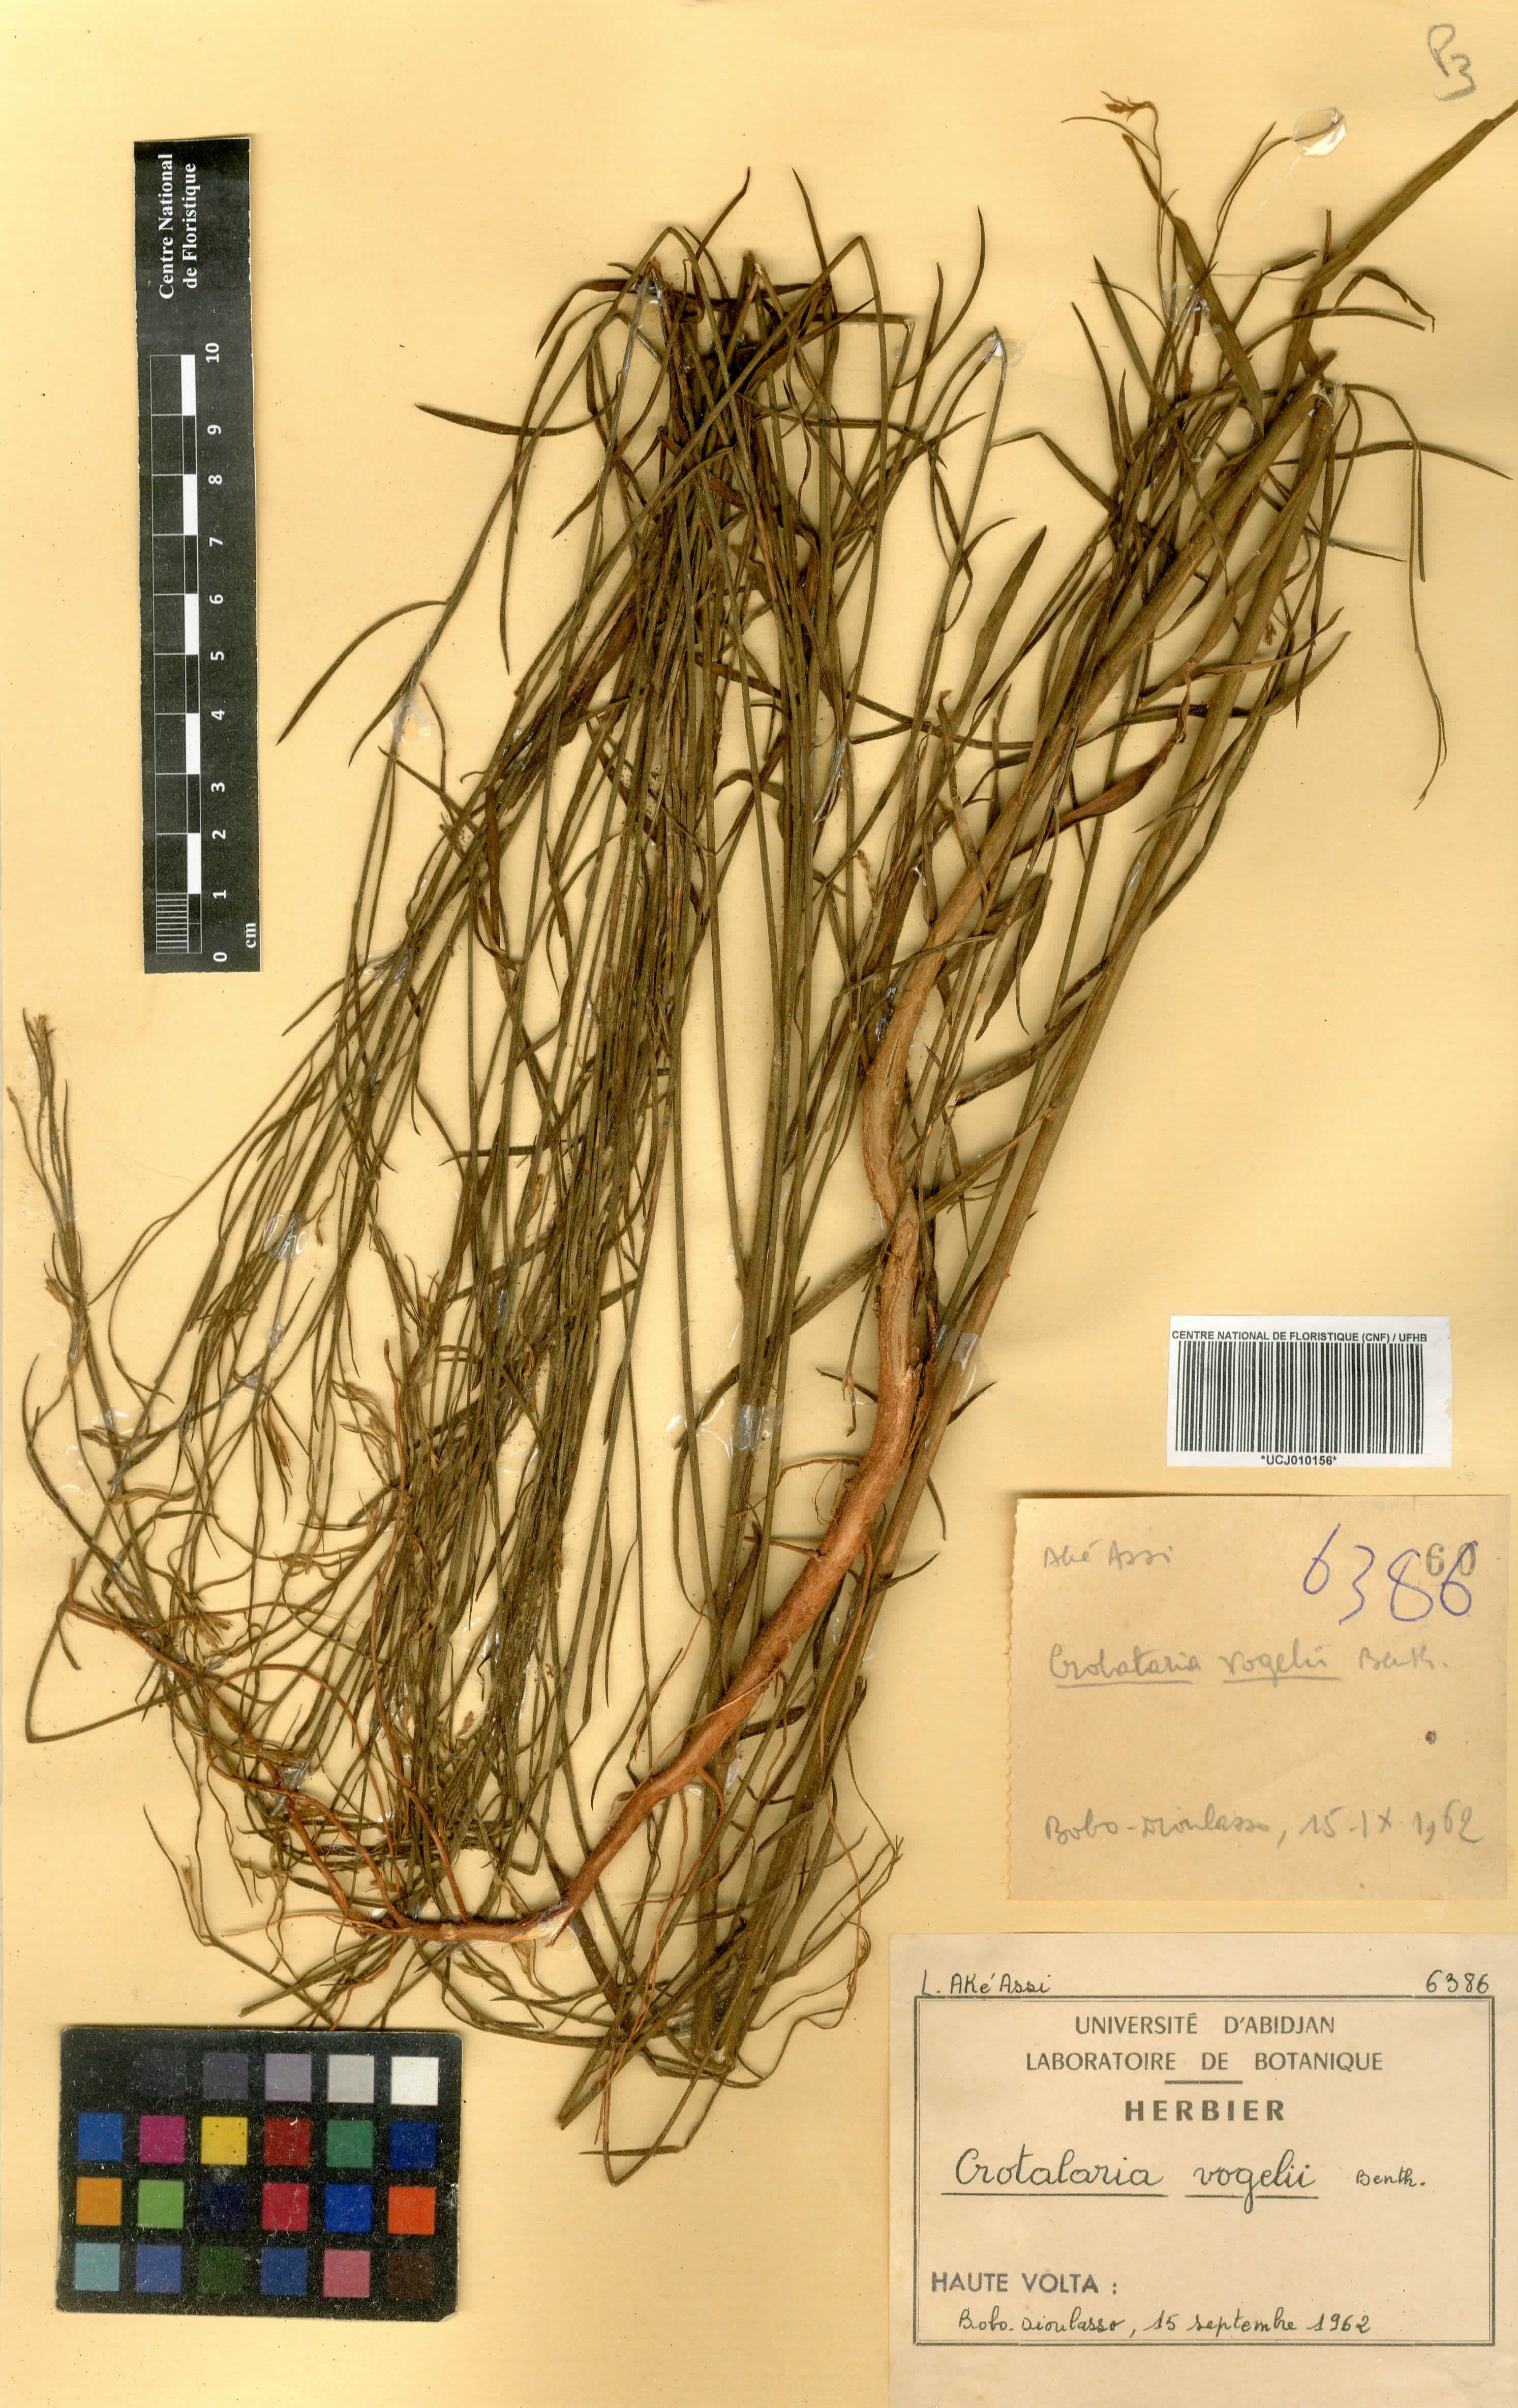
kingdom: Plantae
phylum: Tracheophyta
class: Magnoliopsida
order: Fabales
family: Fabaceae
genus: Crotalaria
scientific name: Crotalaria leprieurii
